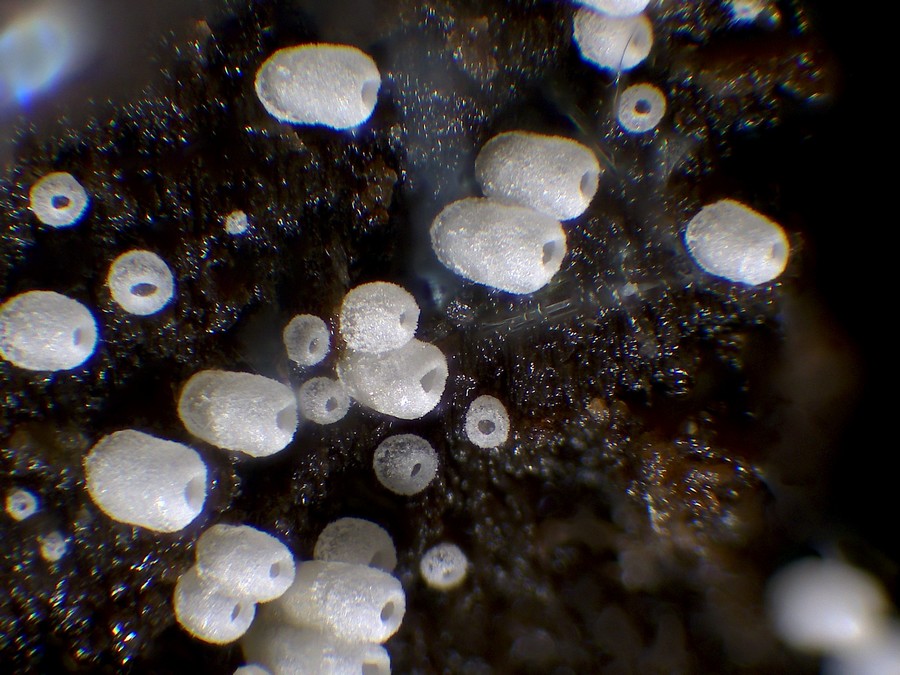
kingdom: Fungi
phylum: Basidiomycota
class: Agaricomycetes
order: Agaricales
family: Marasmiaceae
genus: Henningsomyces
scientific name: Henningsomyces candidus
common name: glat hængerør
